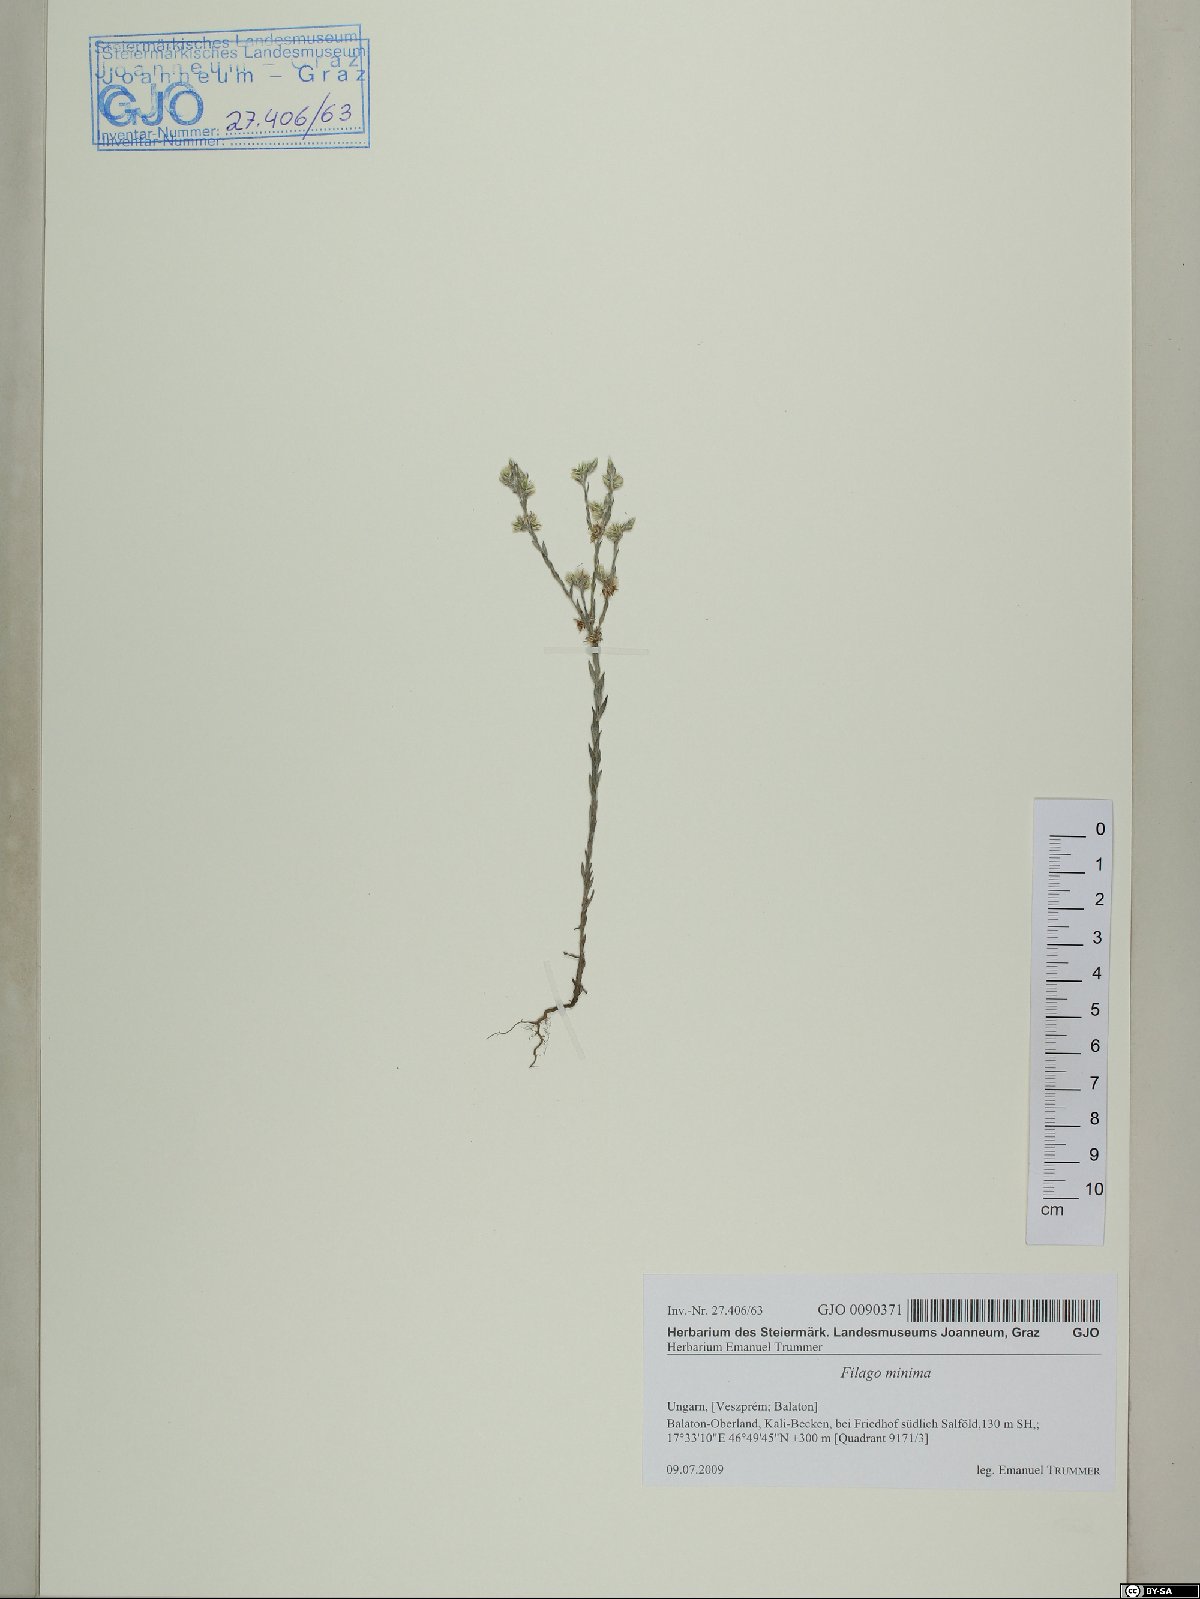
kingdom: Plantae
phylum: Tracheophyta
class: Magnoliopsida
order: Asterales
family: Asteraceae
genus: Logfia
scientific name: Logfia minima
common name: Little cottonrose
